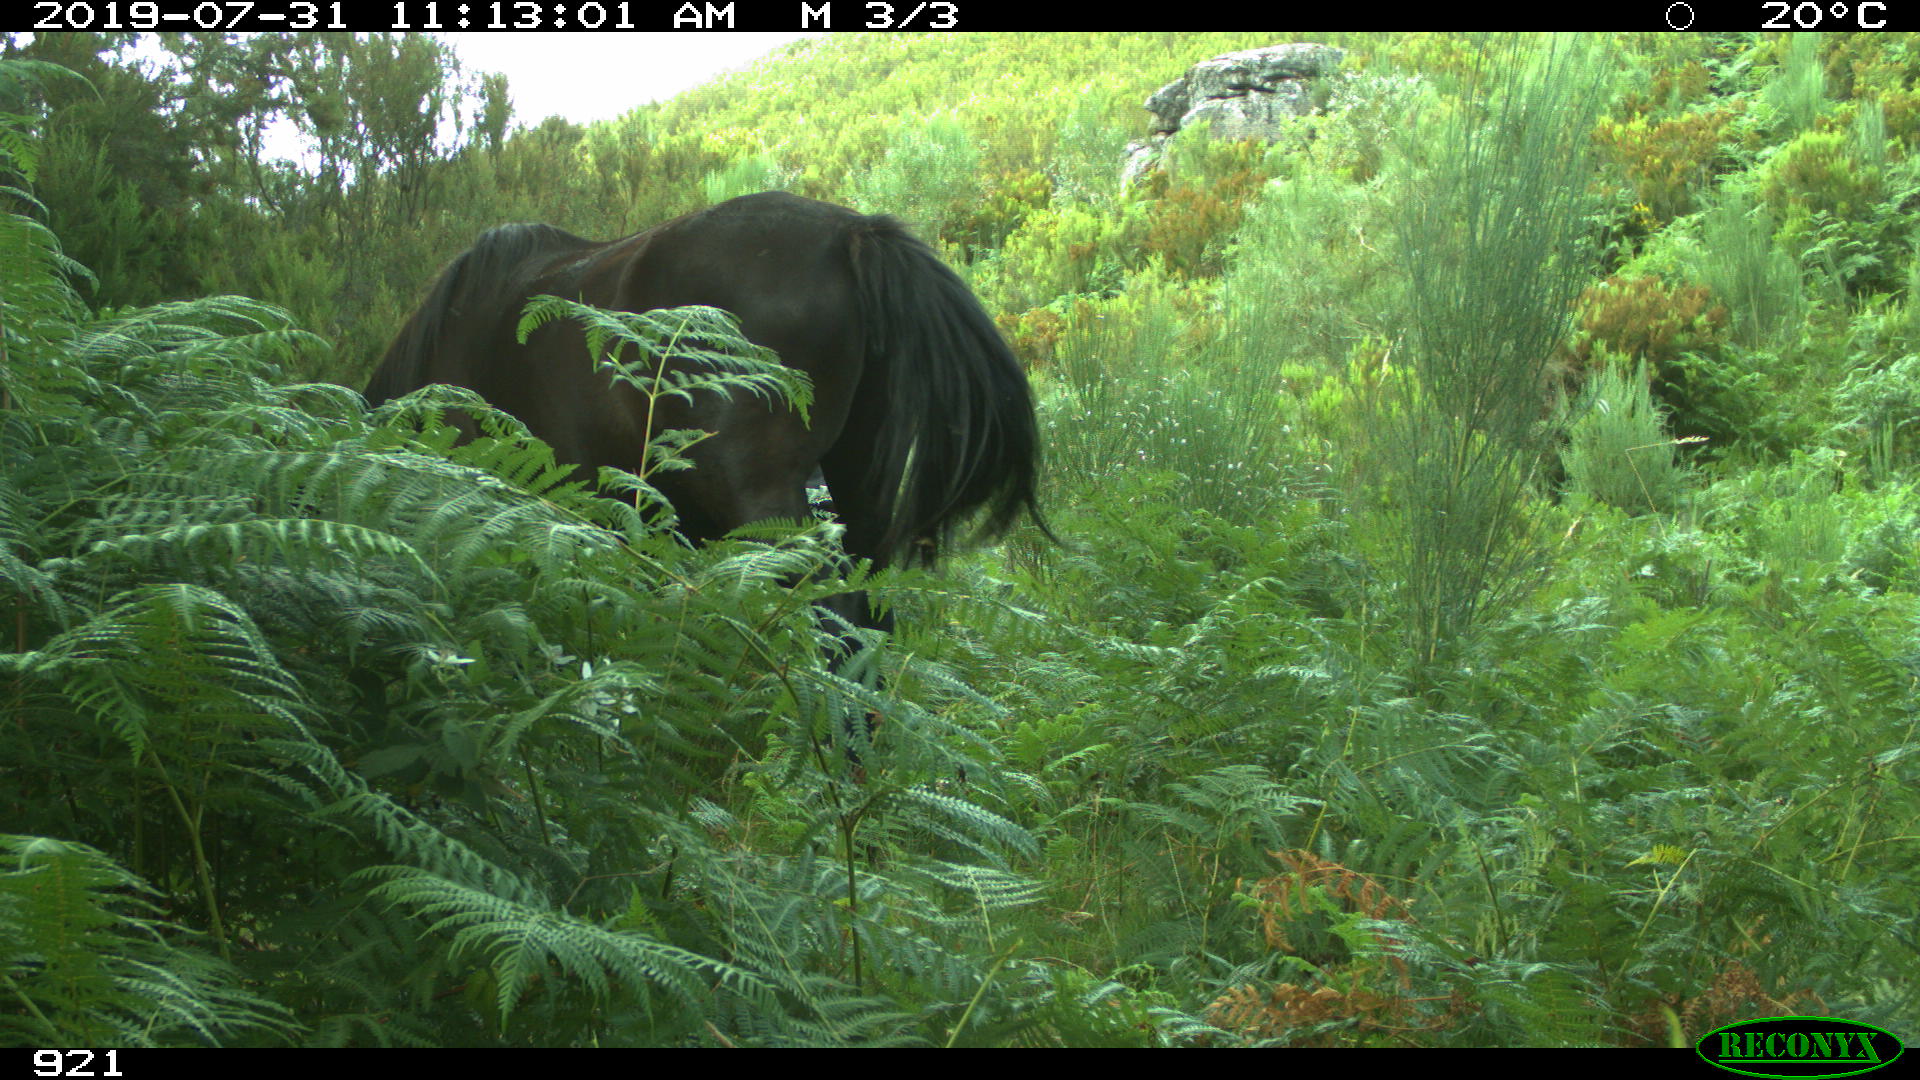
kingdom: Animalia
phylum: Chordata
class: Mammalia
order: Perissodactyla
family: Equidae
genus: Equus
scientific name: Equus caballus
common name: Horse
